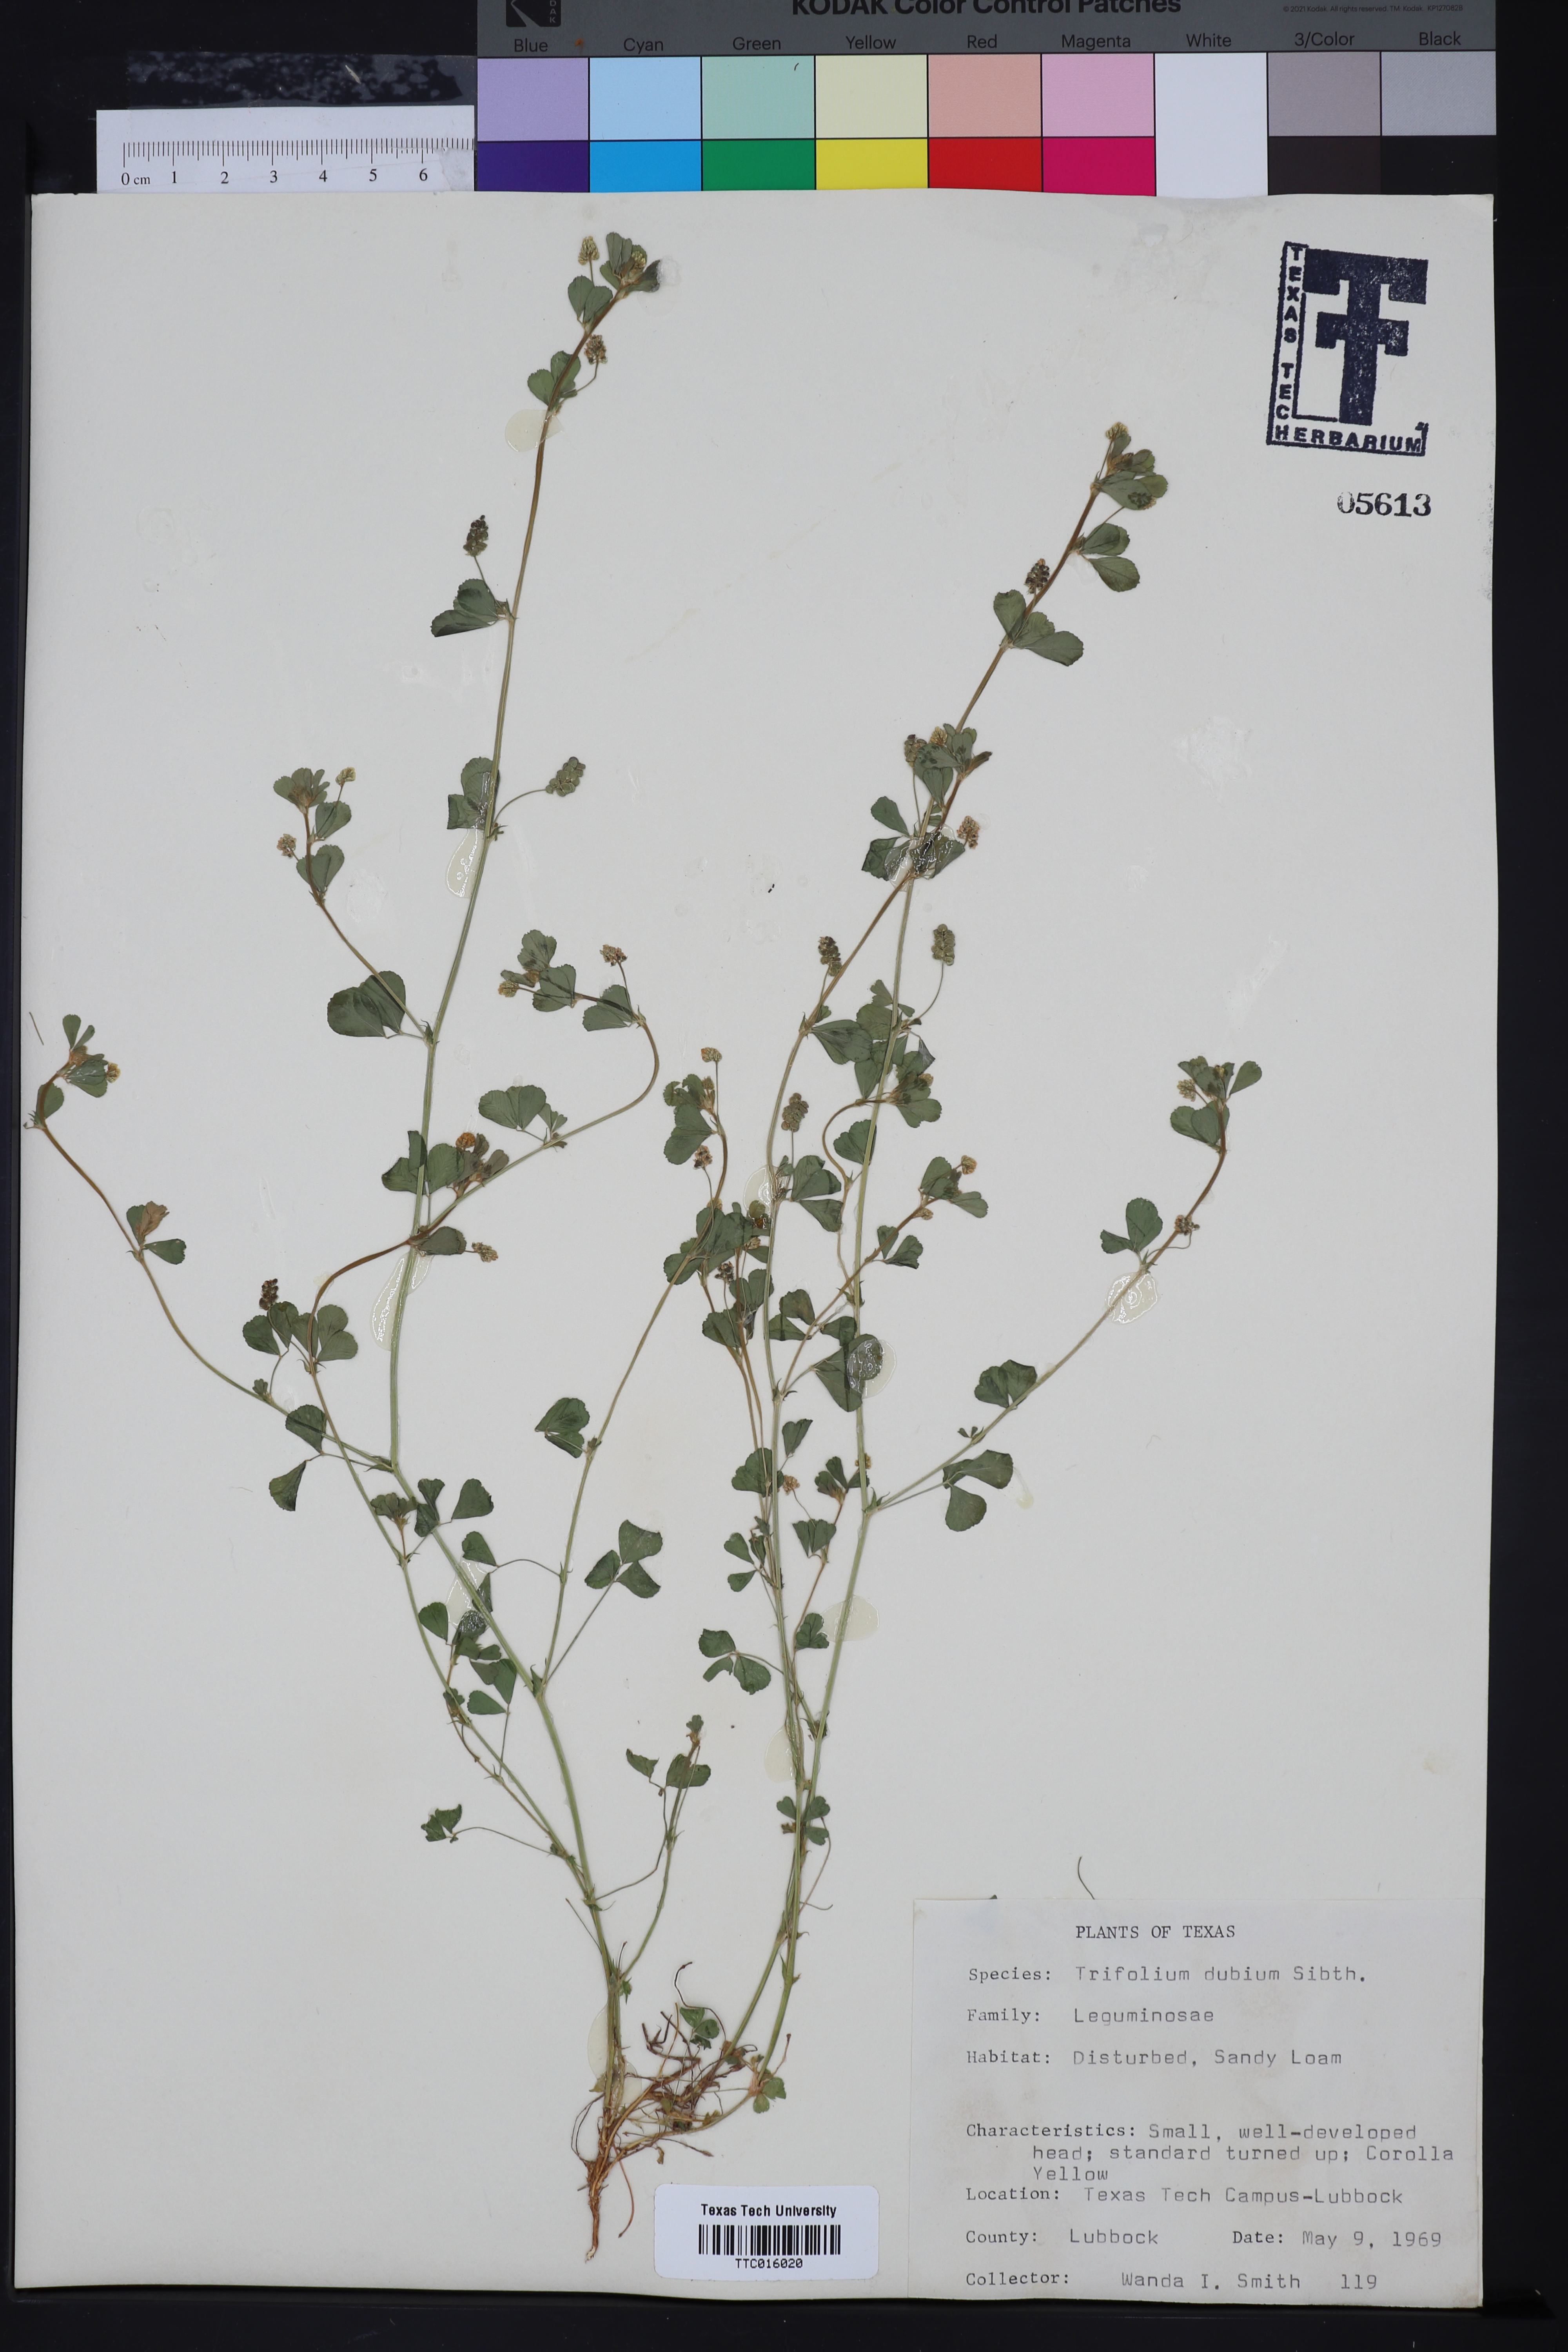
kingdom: Plantae
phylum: Tracheophyta
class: Magnoliopsida
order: Fabales
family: Fabaceae
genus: Trifolium
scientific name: Trifolium dubium
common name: Suckling clover
